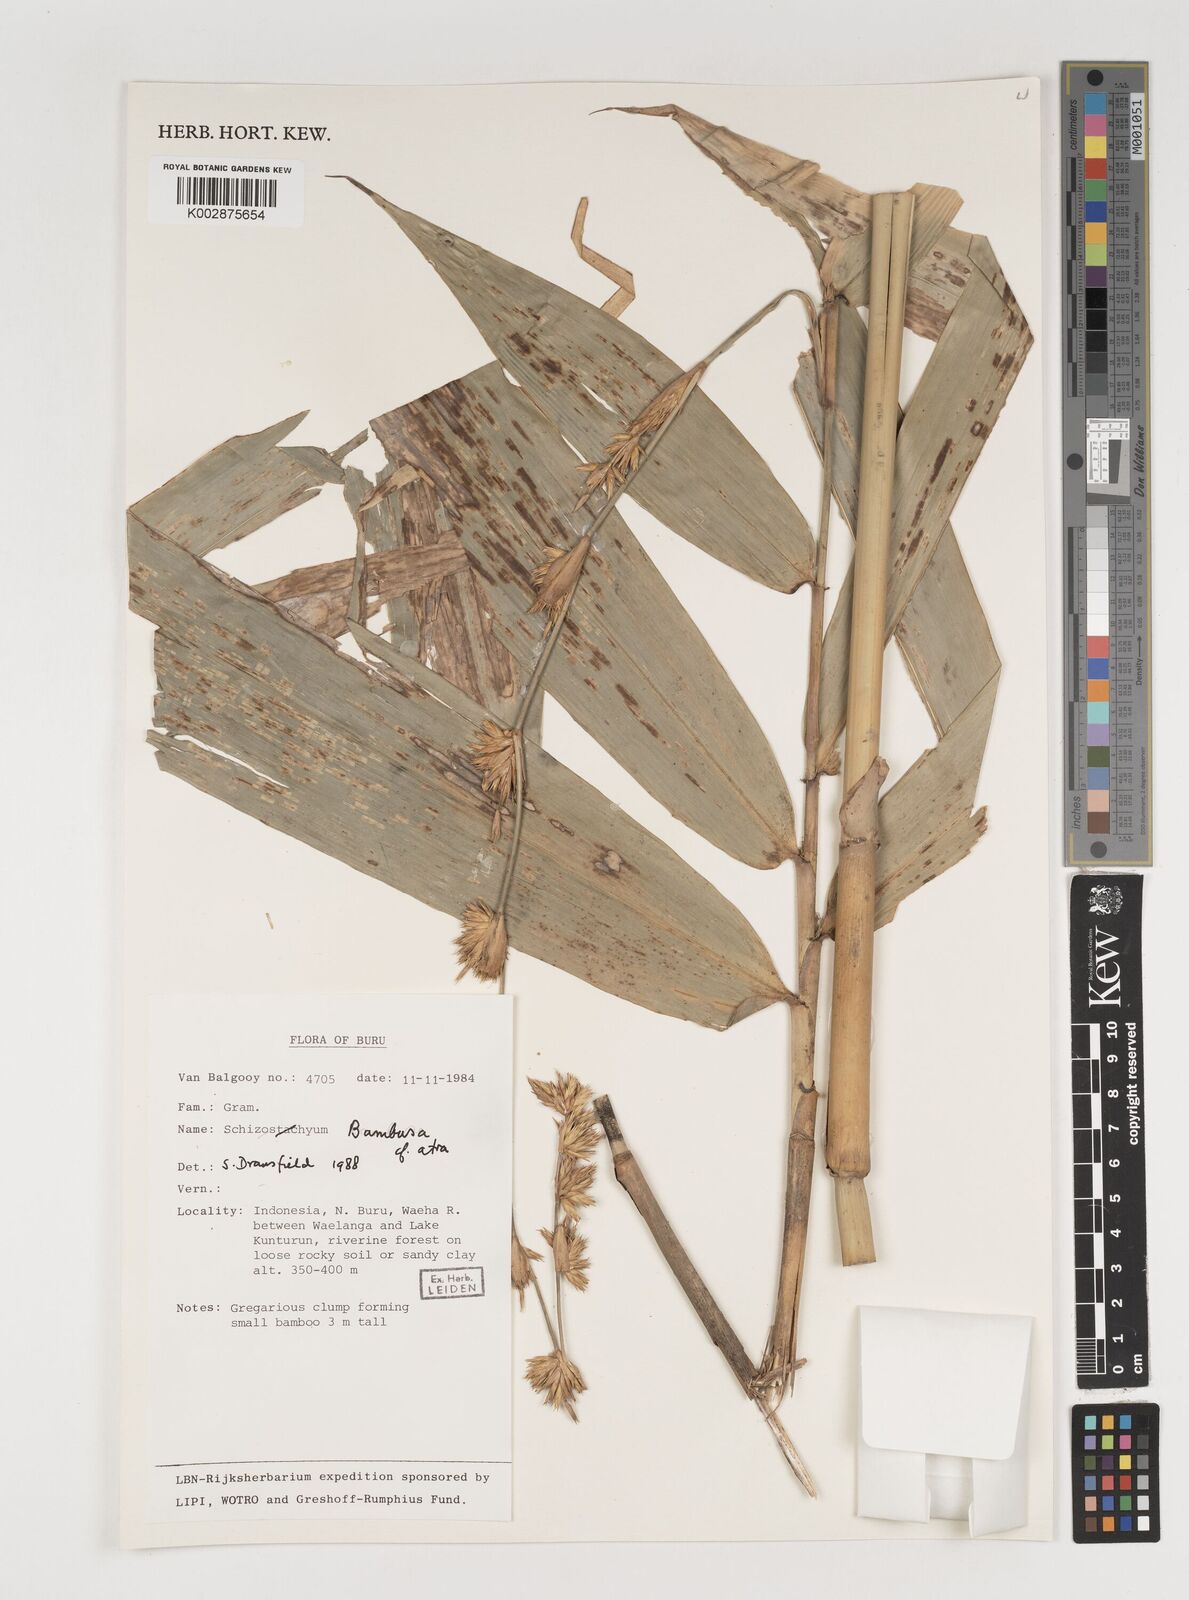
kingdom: Plantae
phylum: Tracheophyta
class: Liliopsida
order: Poales
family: Poaceae
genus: Neololeba
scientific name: Neololeba
